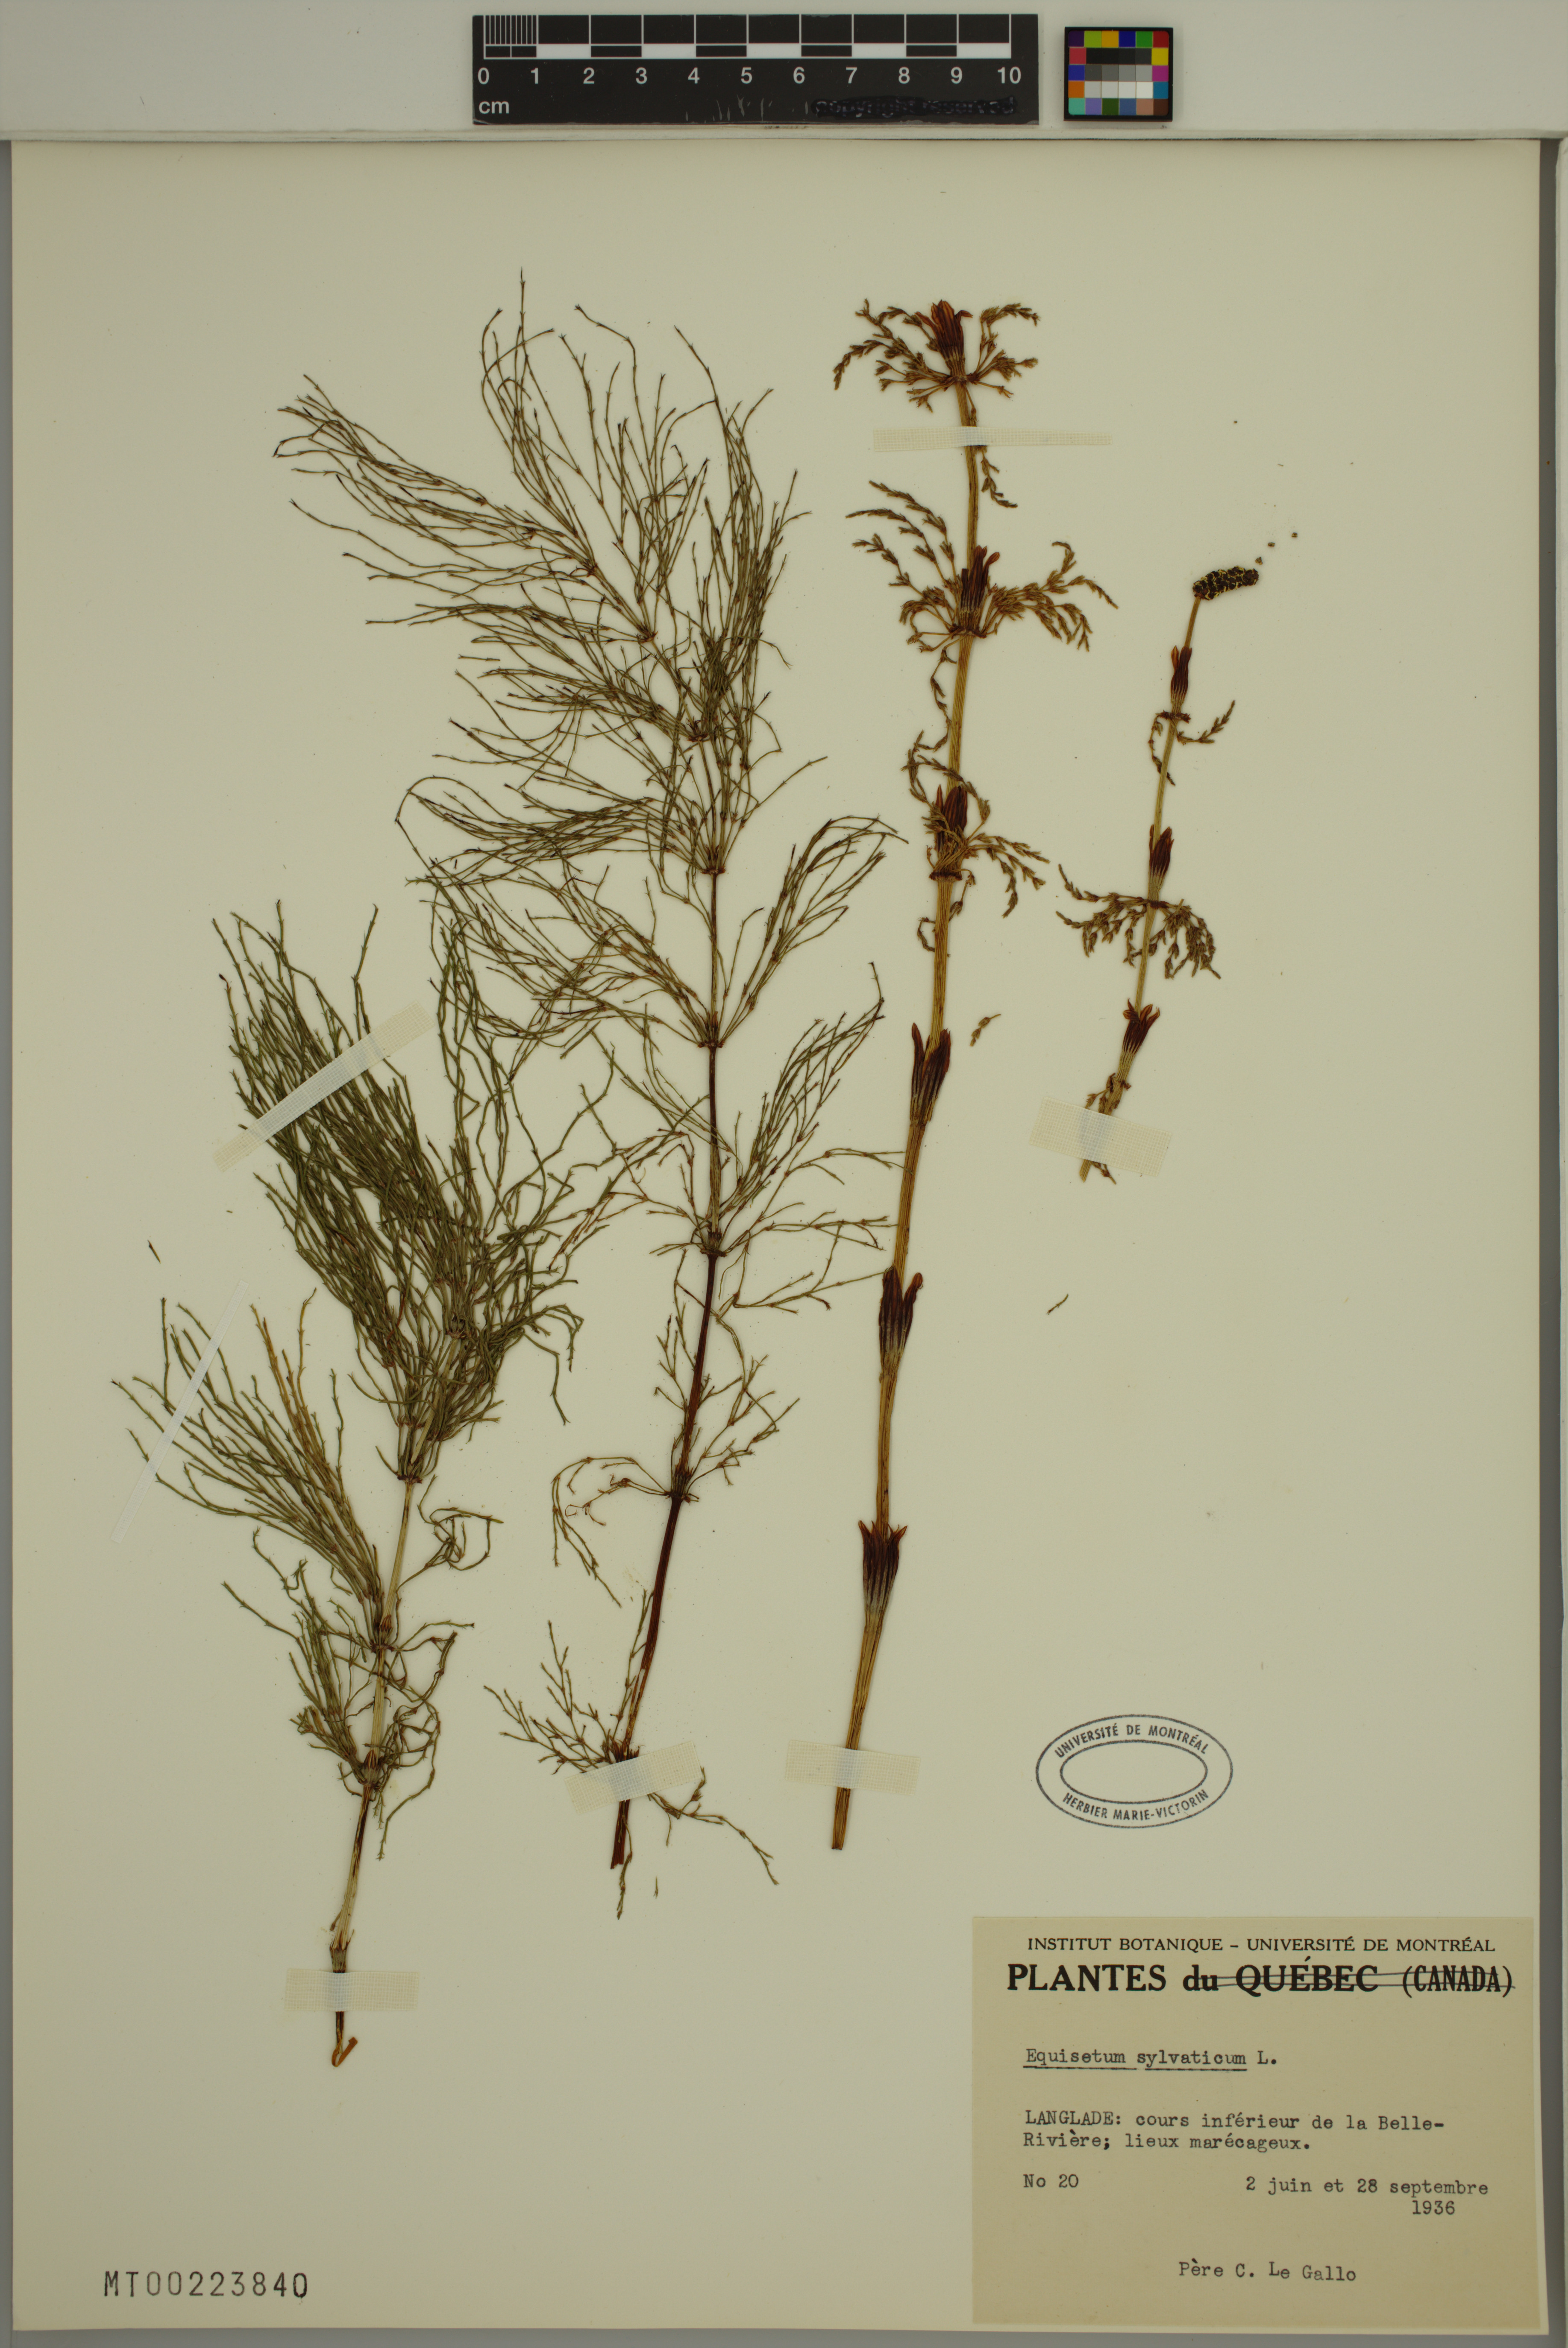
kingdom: Plantae
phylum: Tracheophyta
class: Polypodiopsida
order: Equisetales
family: Equisetaceae
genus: Equisetum
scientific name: Equisetum sylvaticum
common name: Wood horsetail
